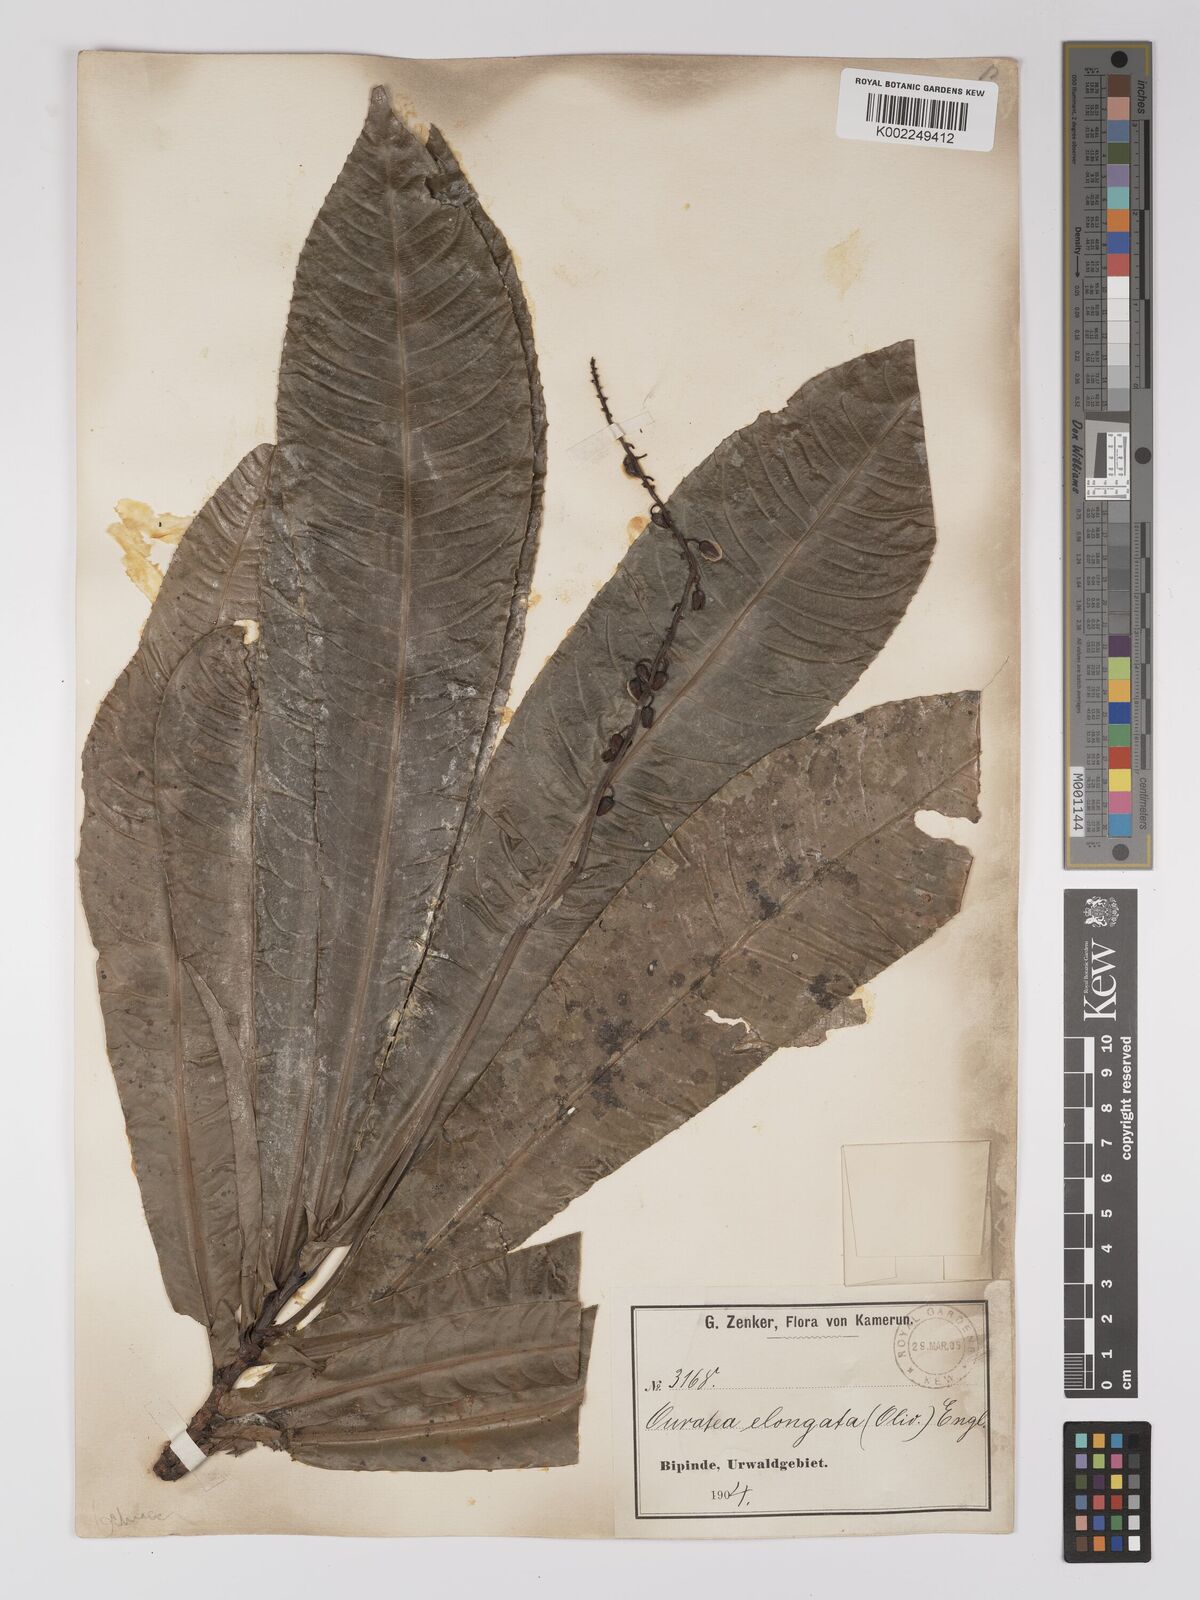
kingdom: Plantae
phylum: Tracheophyta
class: Magnoliopsida
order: Malpighiales
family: Ochnaceae
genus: Gomphia
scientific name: Gomphia elongata
